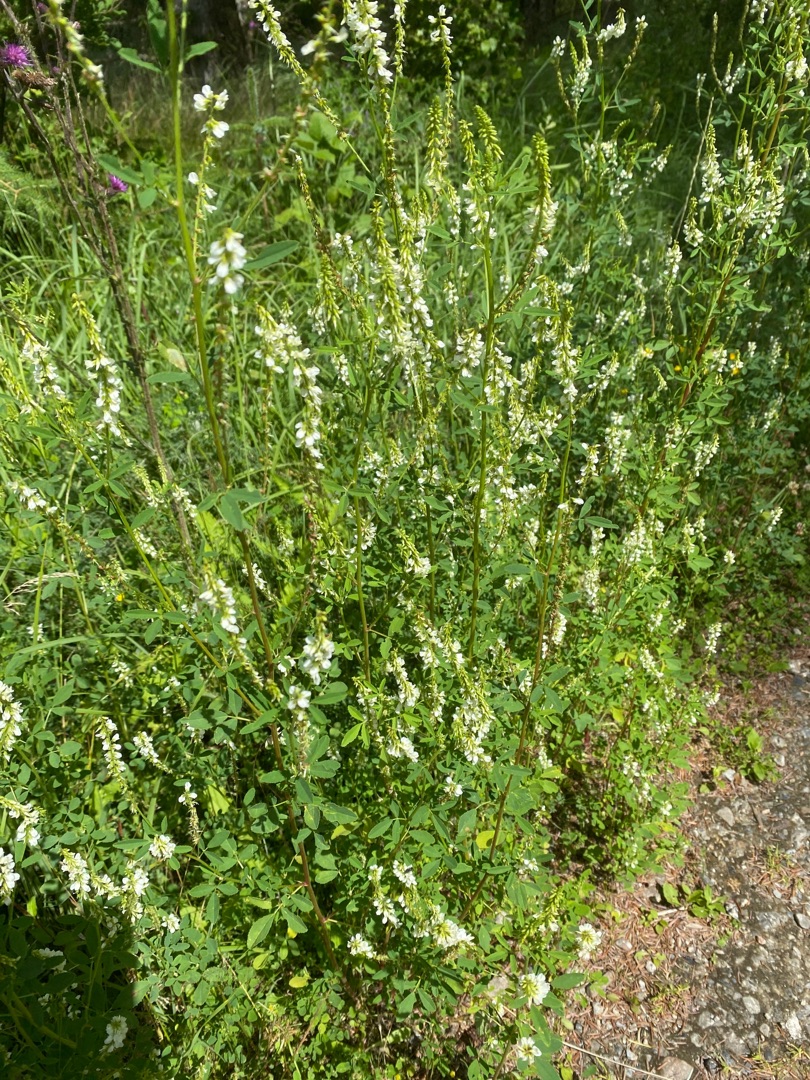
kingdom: Plantae
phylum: Tracheophyta
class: Magnoliopsida
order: Fabales
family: Fabaceae
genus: Melilotus
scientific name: Melilotus albus
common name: Hvid stenkløver
